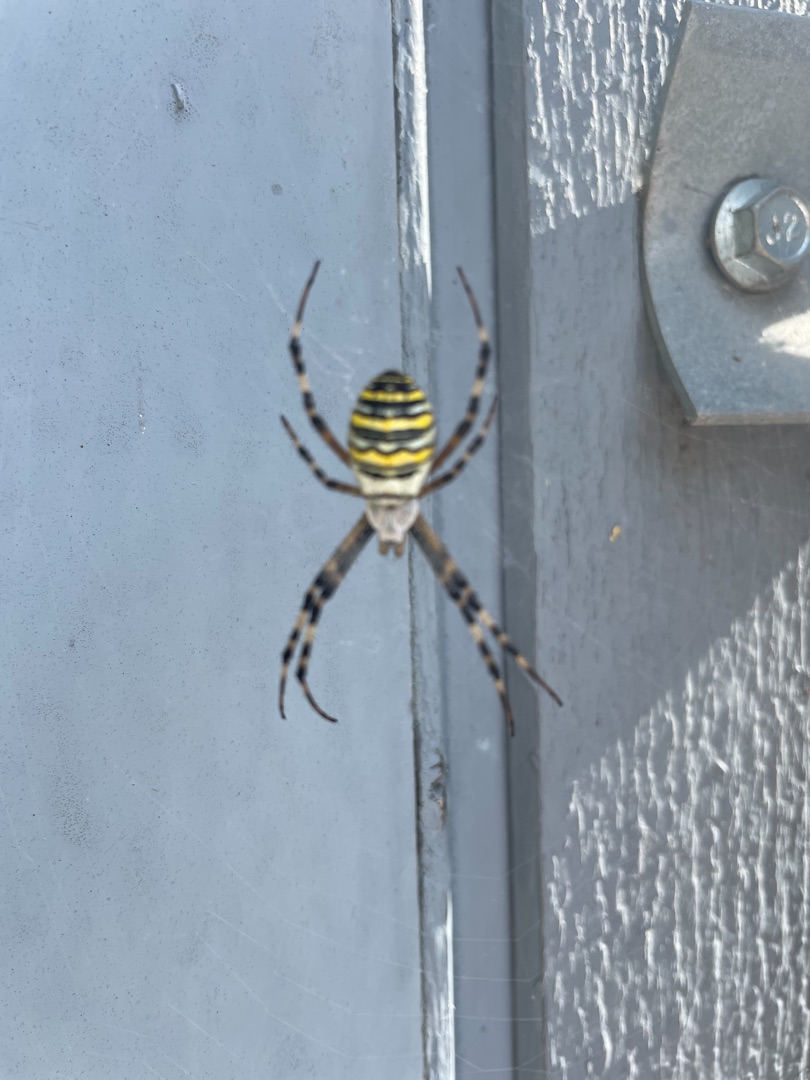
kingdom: Animalia
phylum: Arthropoda
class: Arachnida
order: Araneae
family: Araneidae
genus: Argiope
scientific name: Argiope bruennichi
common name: Hvepseedderkop
